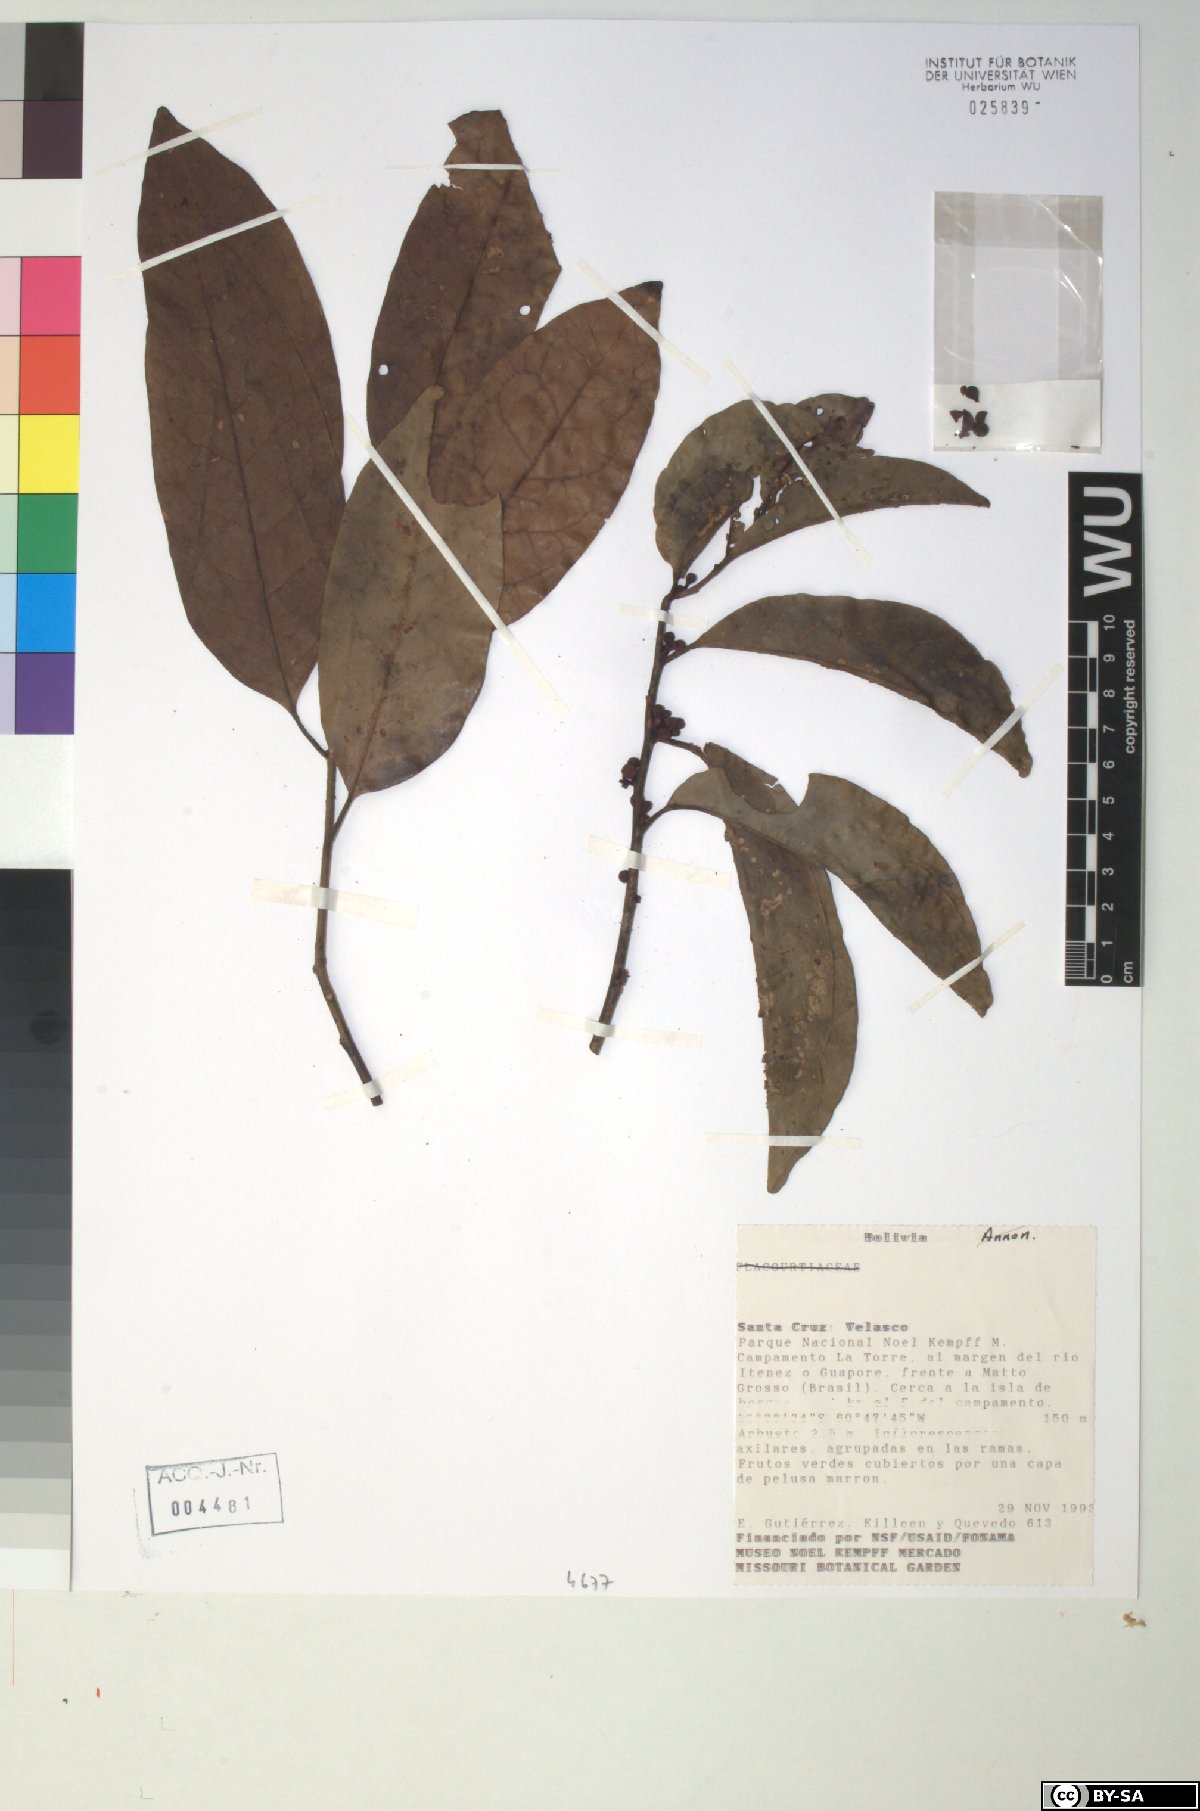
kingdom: Plantae
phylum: Tracheophyta
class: Magnoliopsida
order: Metteniusales
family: Metteniusaceae
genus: Dendrobangia
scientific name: Dendrobangia boliviana
